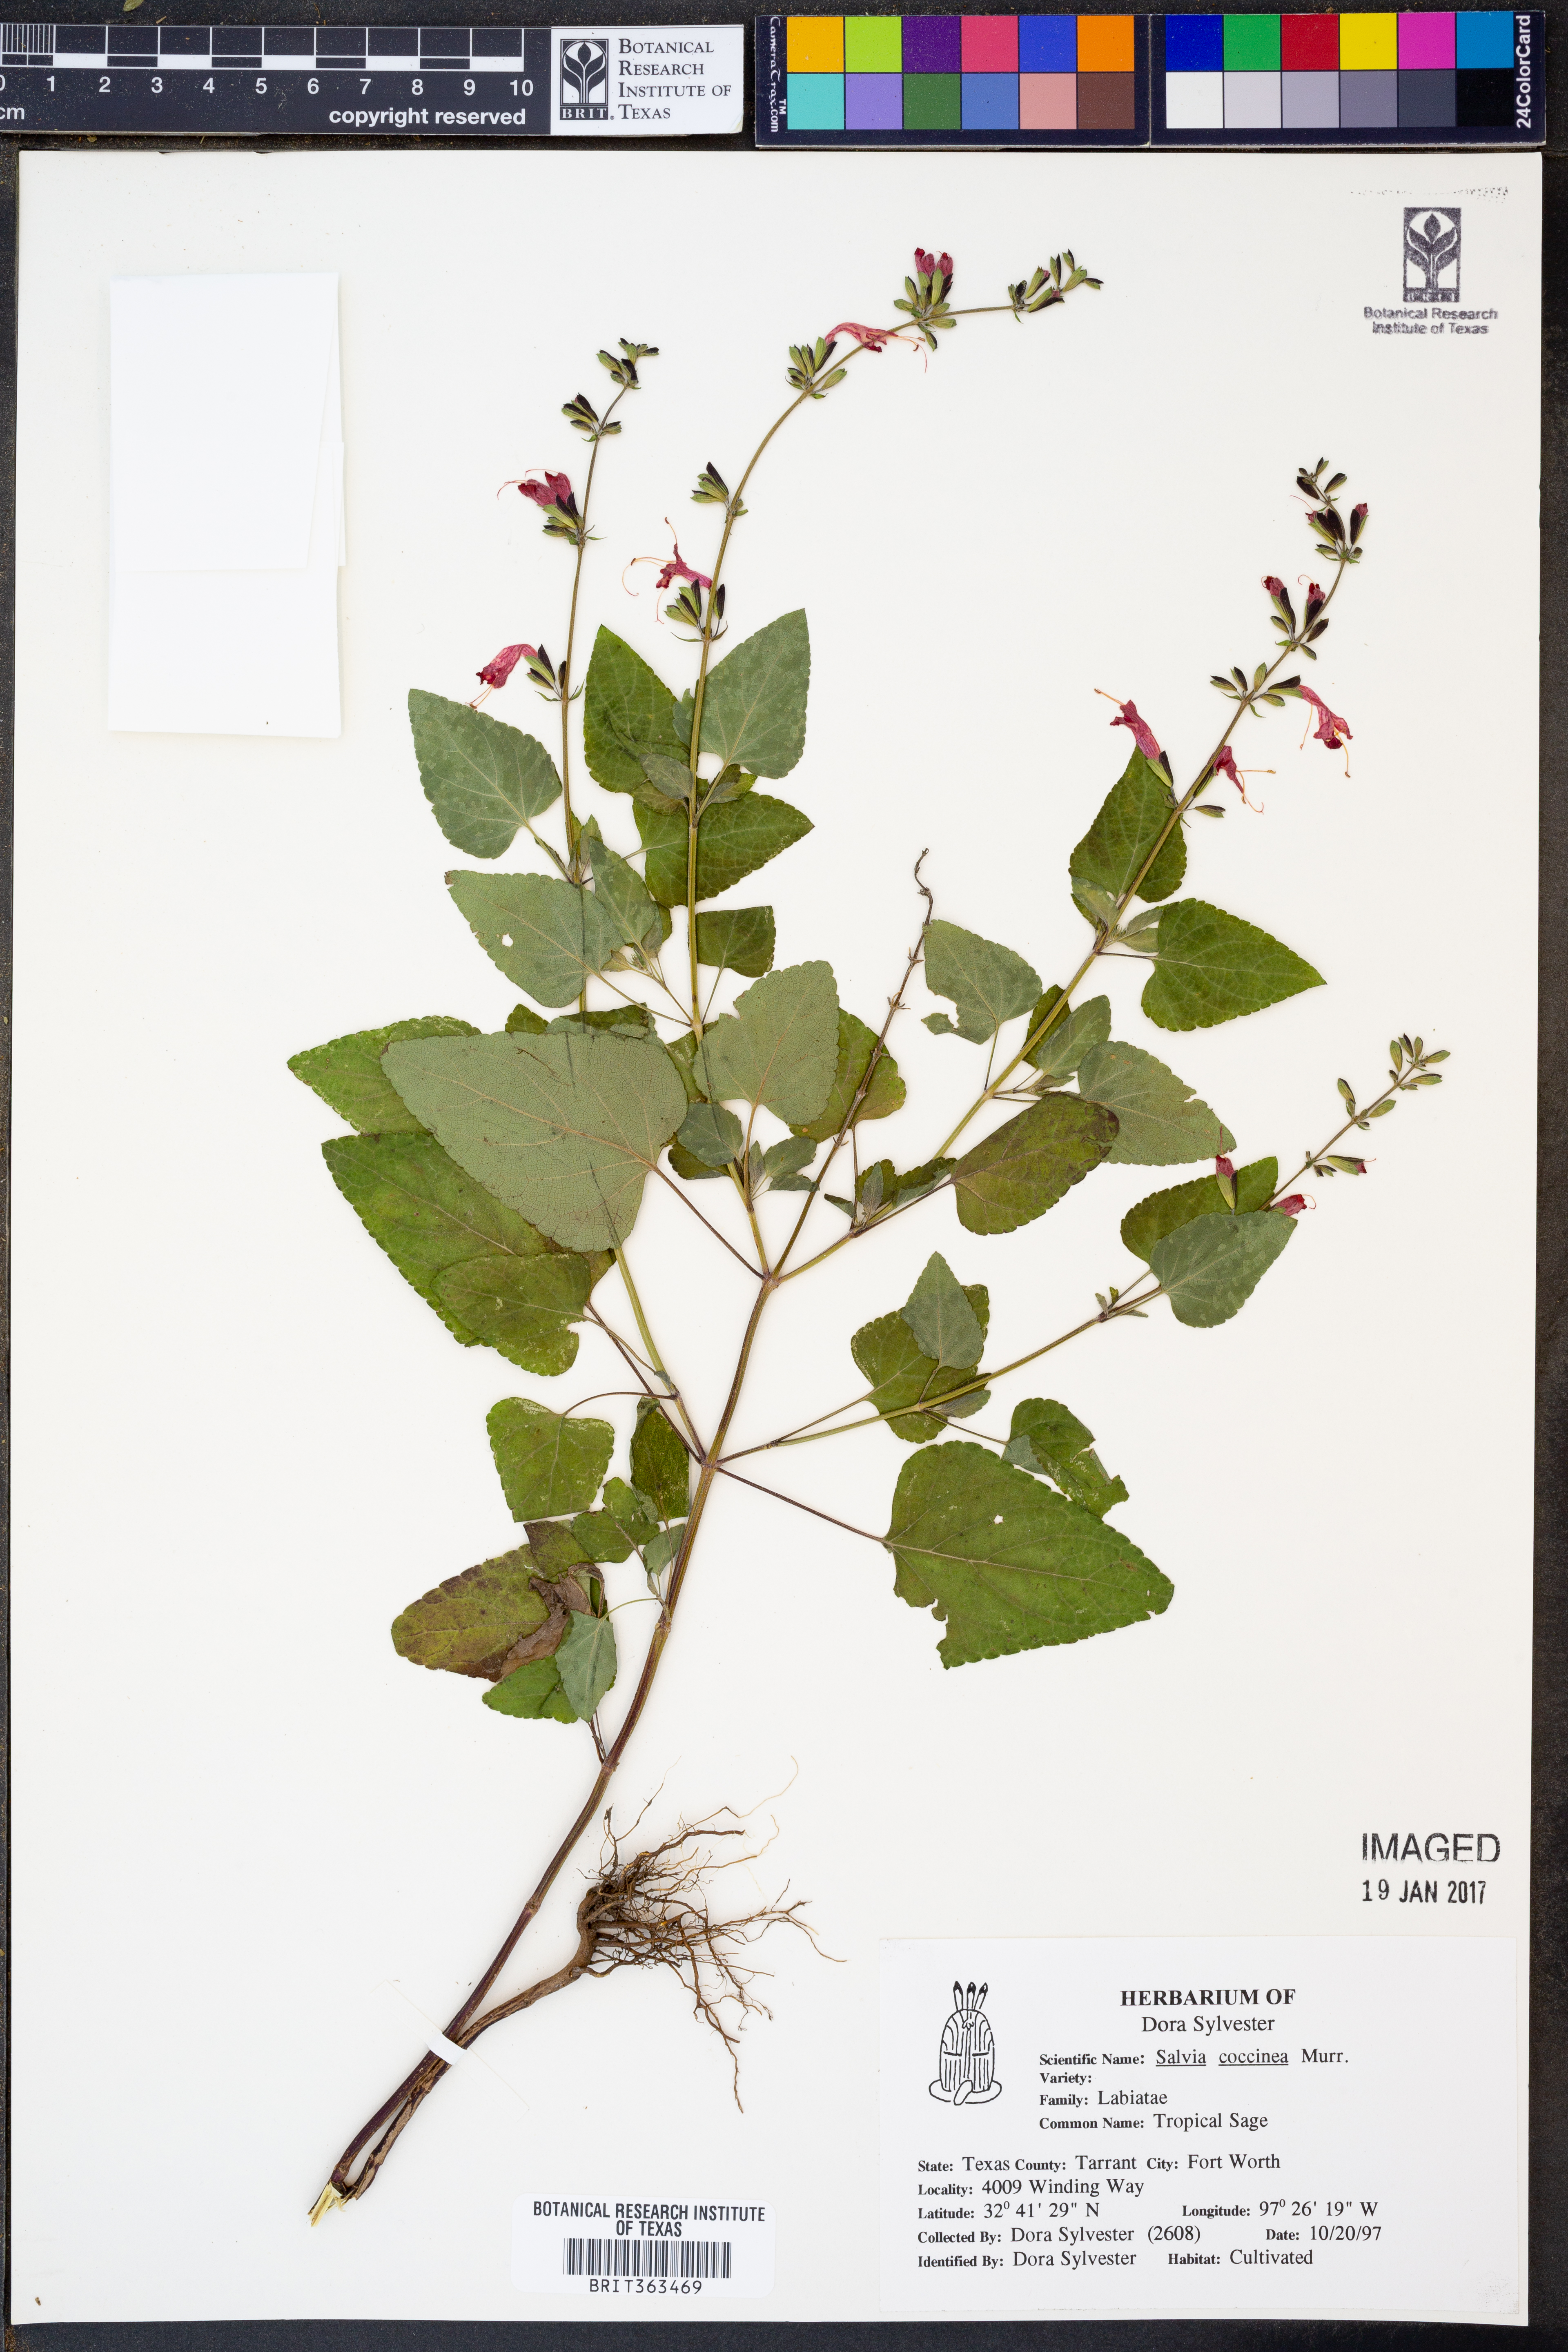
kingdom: Plantae
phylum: Tracheophyta
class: Magnoliopsida
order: Lamiales
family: Lamiaceae
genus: Salvia
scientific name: Salvia coccinea
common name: Blood sage
